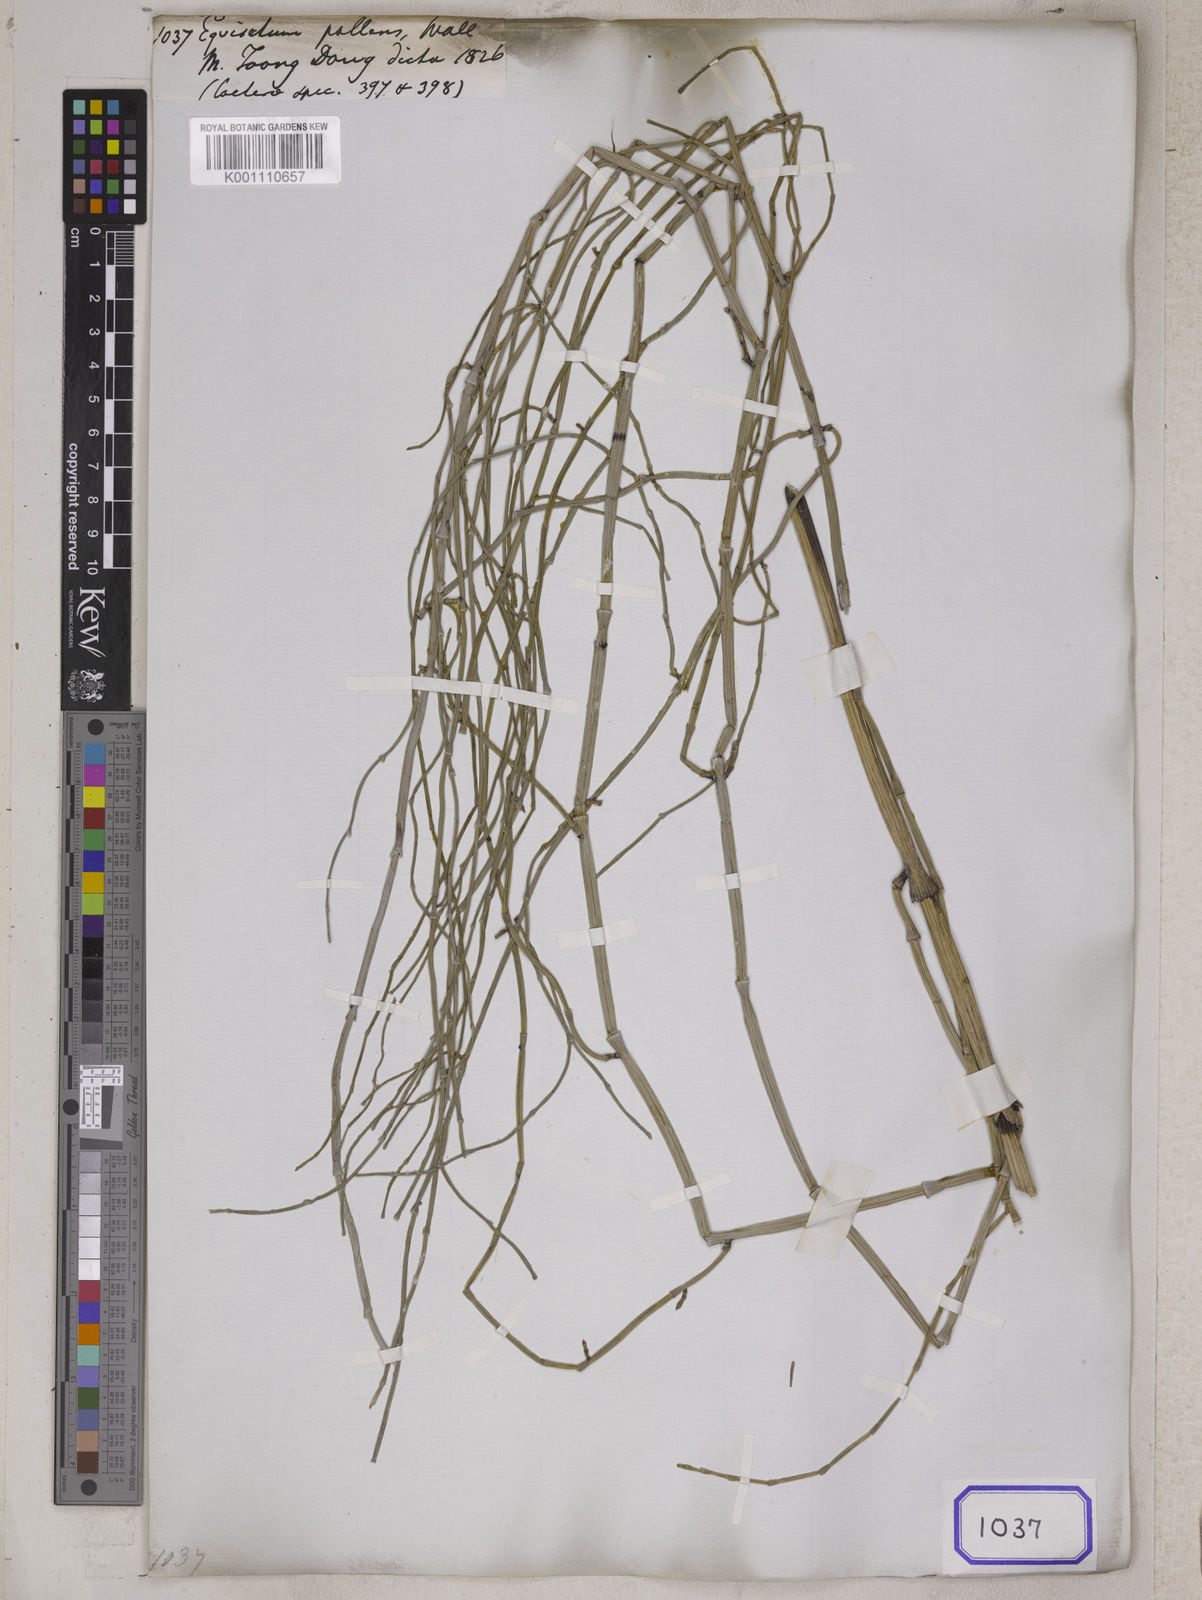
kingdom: Plantae
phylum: Tracheophyta
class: Polypodiopsida
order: Equisetales
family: Equisetaceae
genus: Equisetum
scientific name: Equisetum
